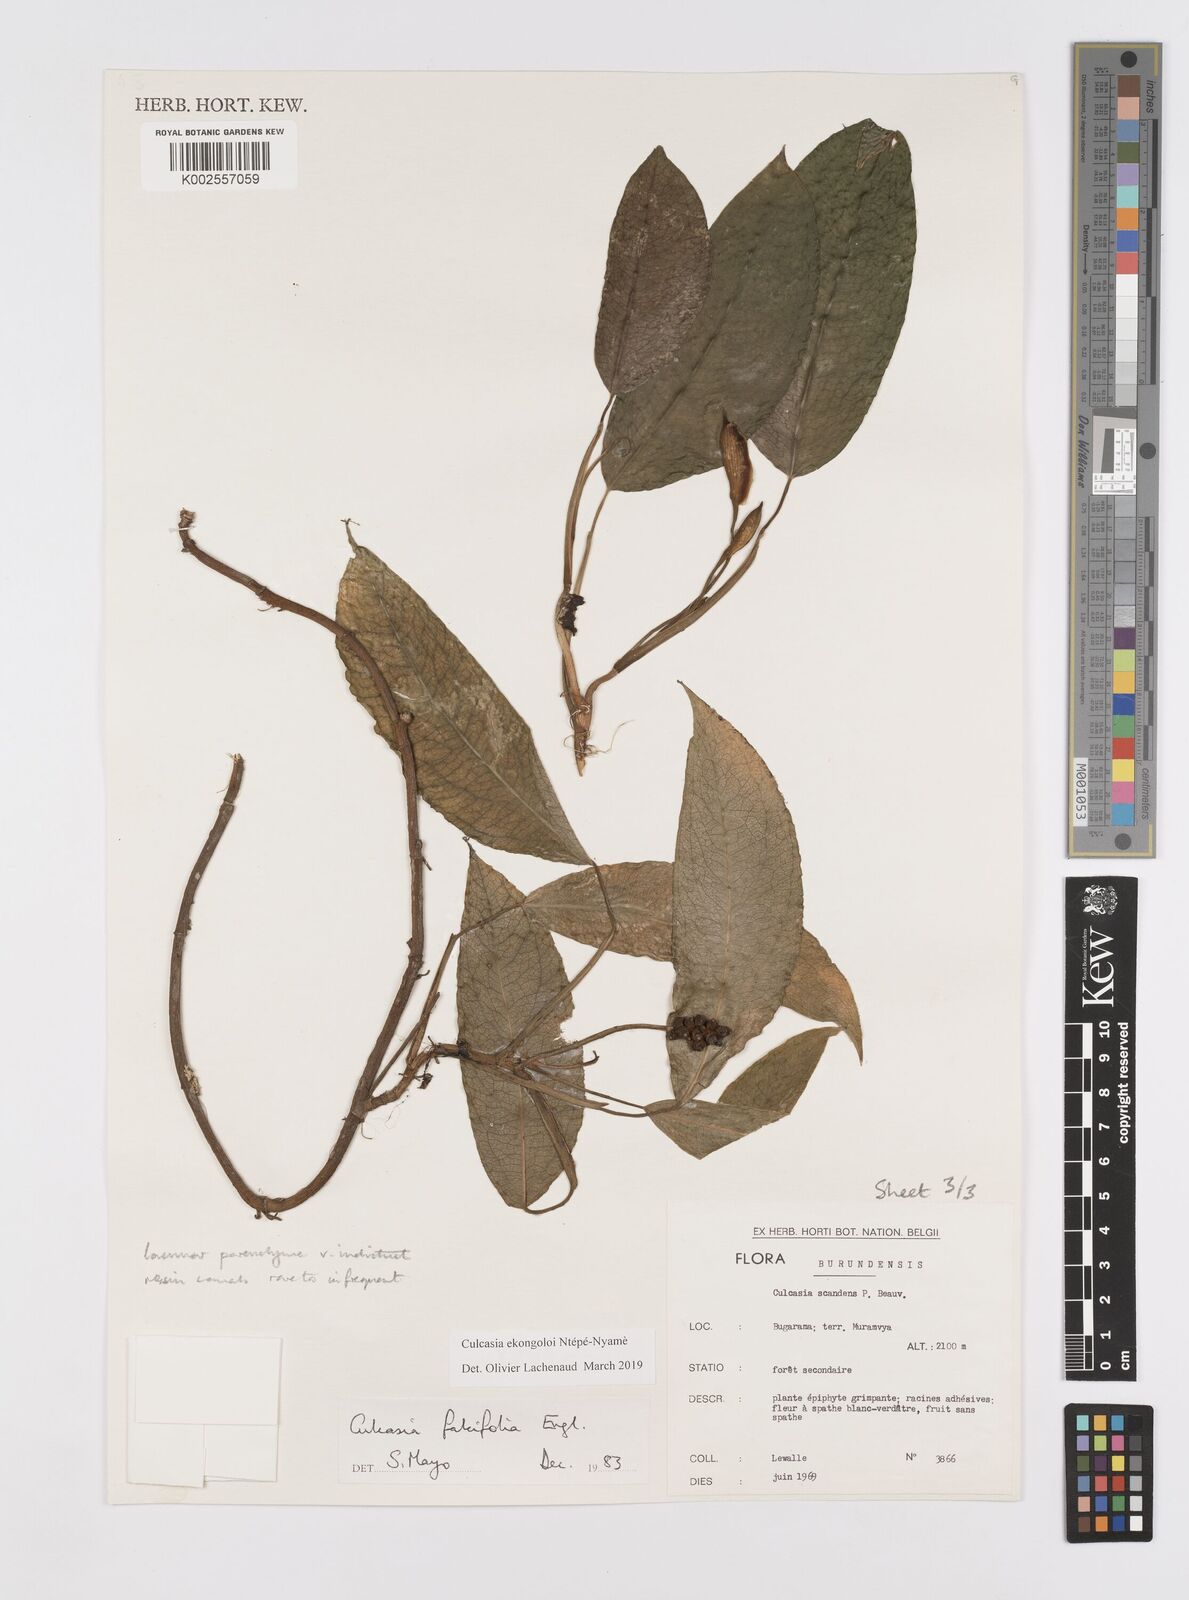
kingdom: Plantae
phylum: Tracheophyta
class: Liliopsida
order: Alismatales
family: Araceae
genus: Culcasia
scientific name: Culcasia ekongoloi
